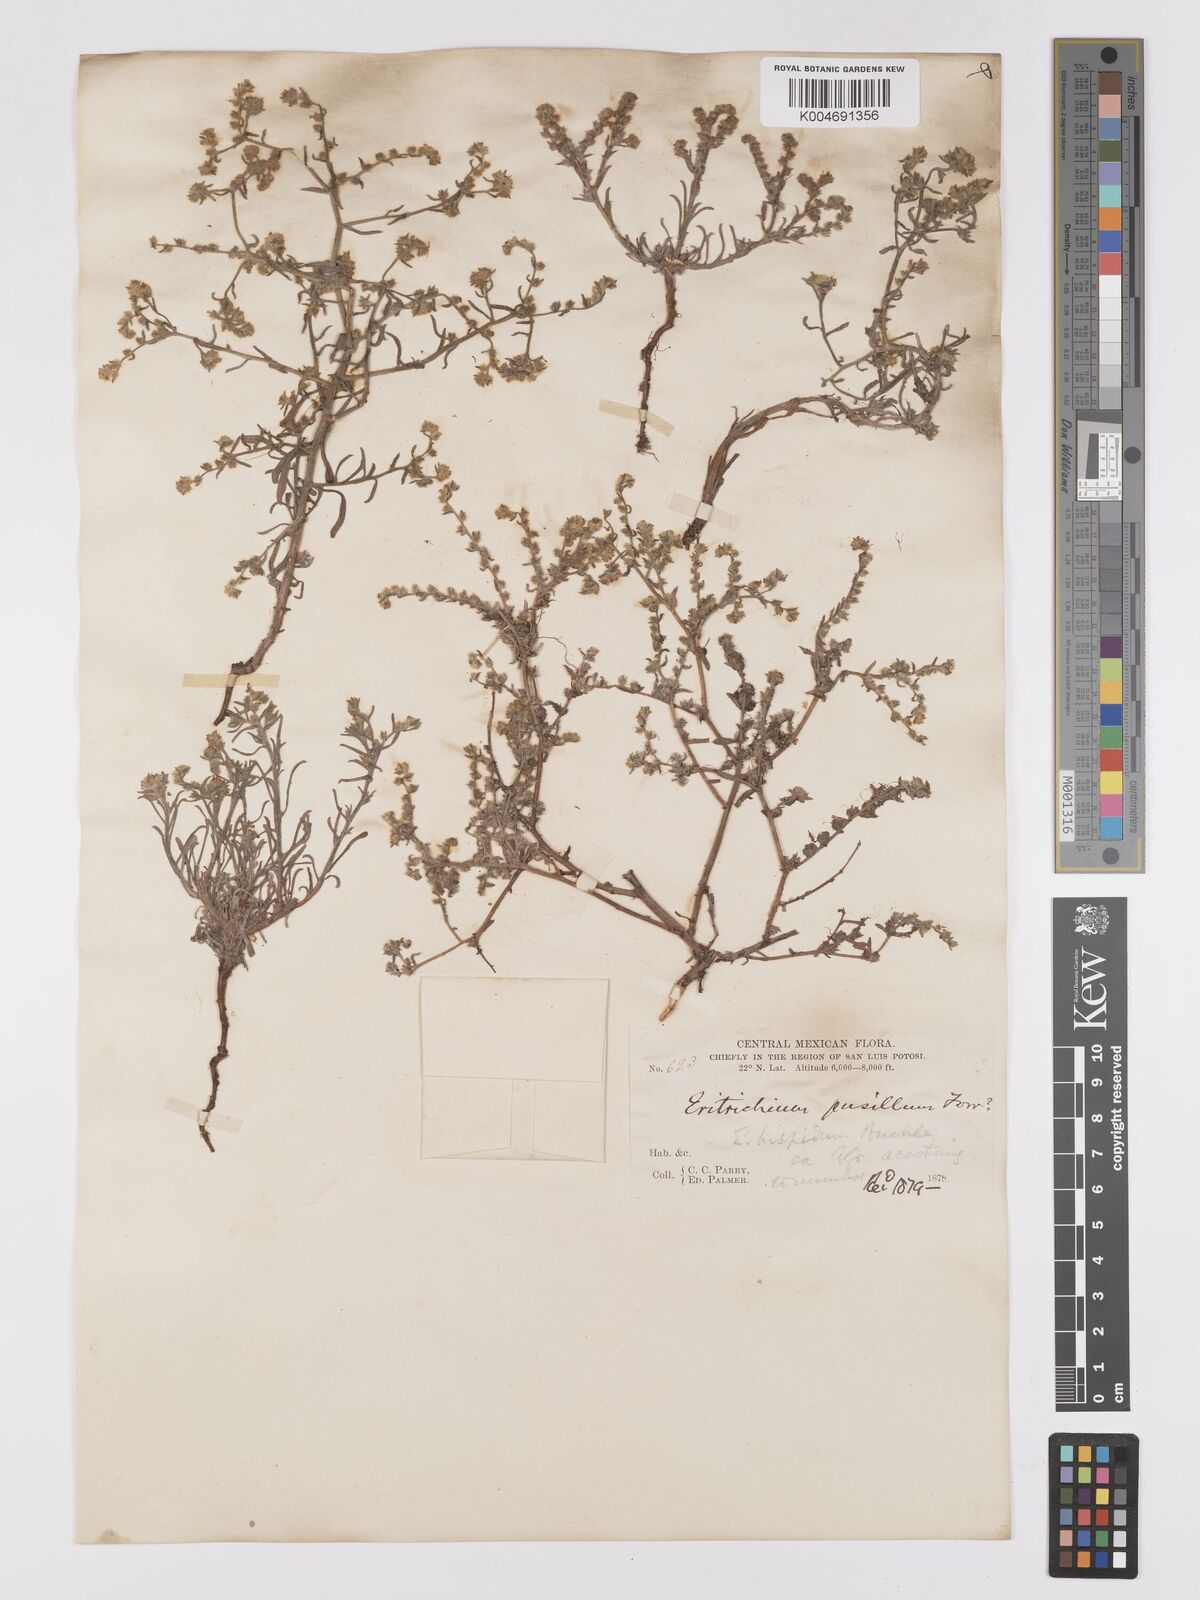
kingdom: Plantae
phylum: Tracheophyta
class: Magnoliopsida
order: Boraginales
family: Boraginaceae
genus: Johnstonella
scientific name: Johnstonella albida
